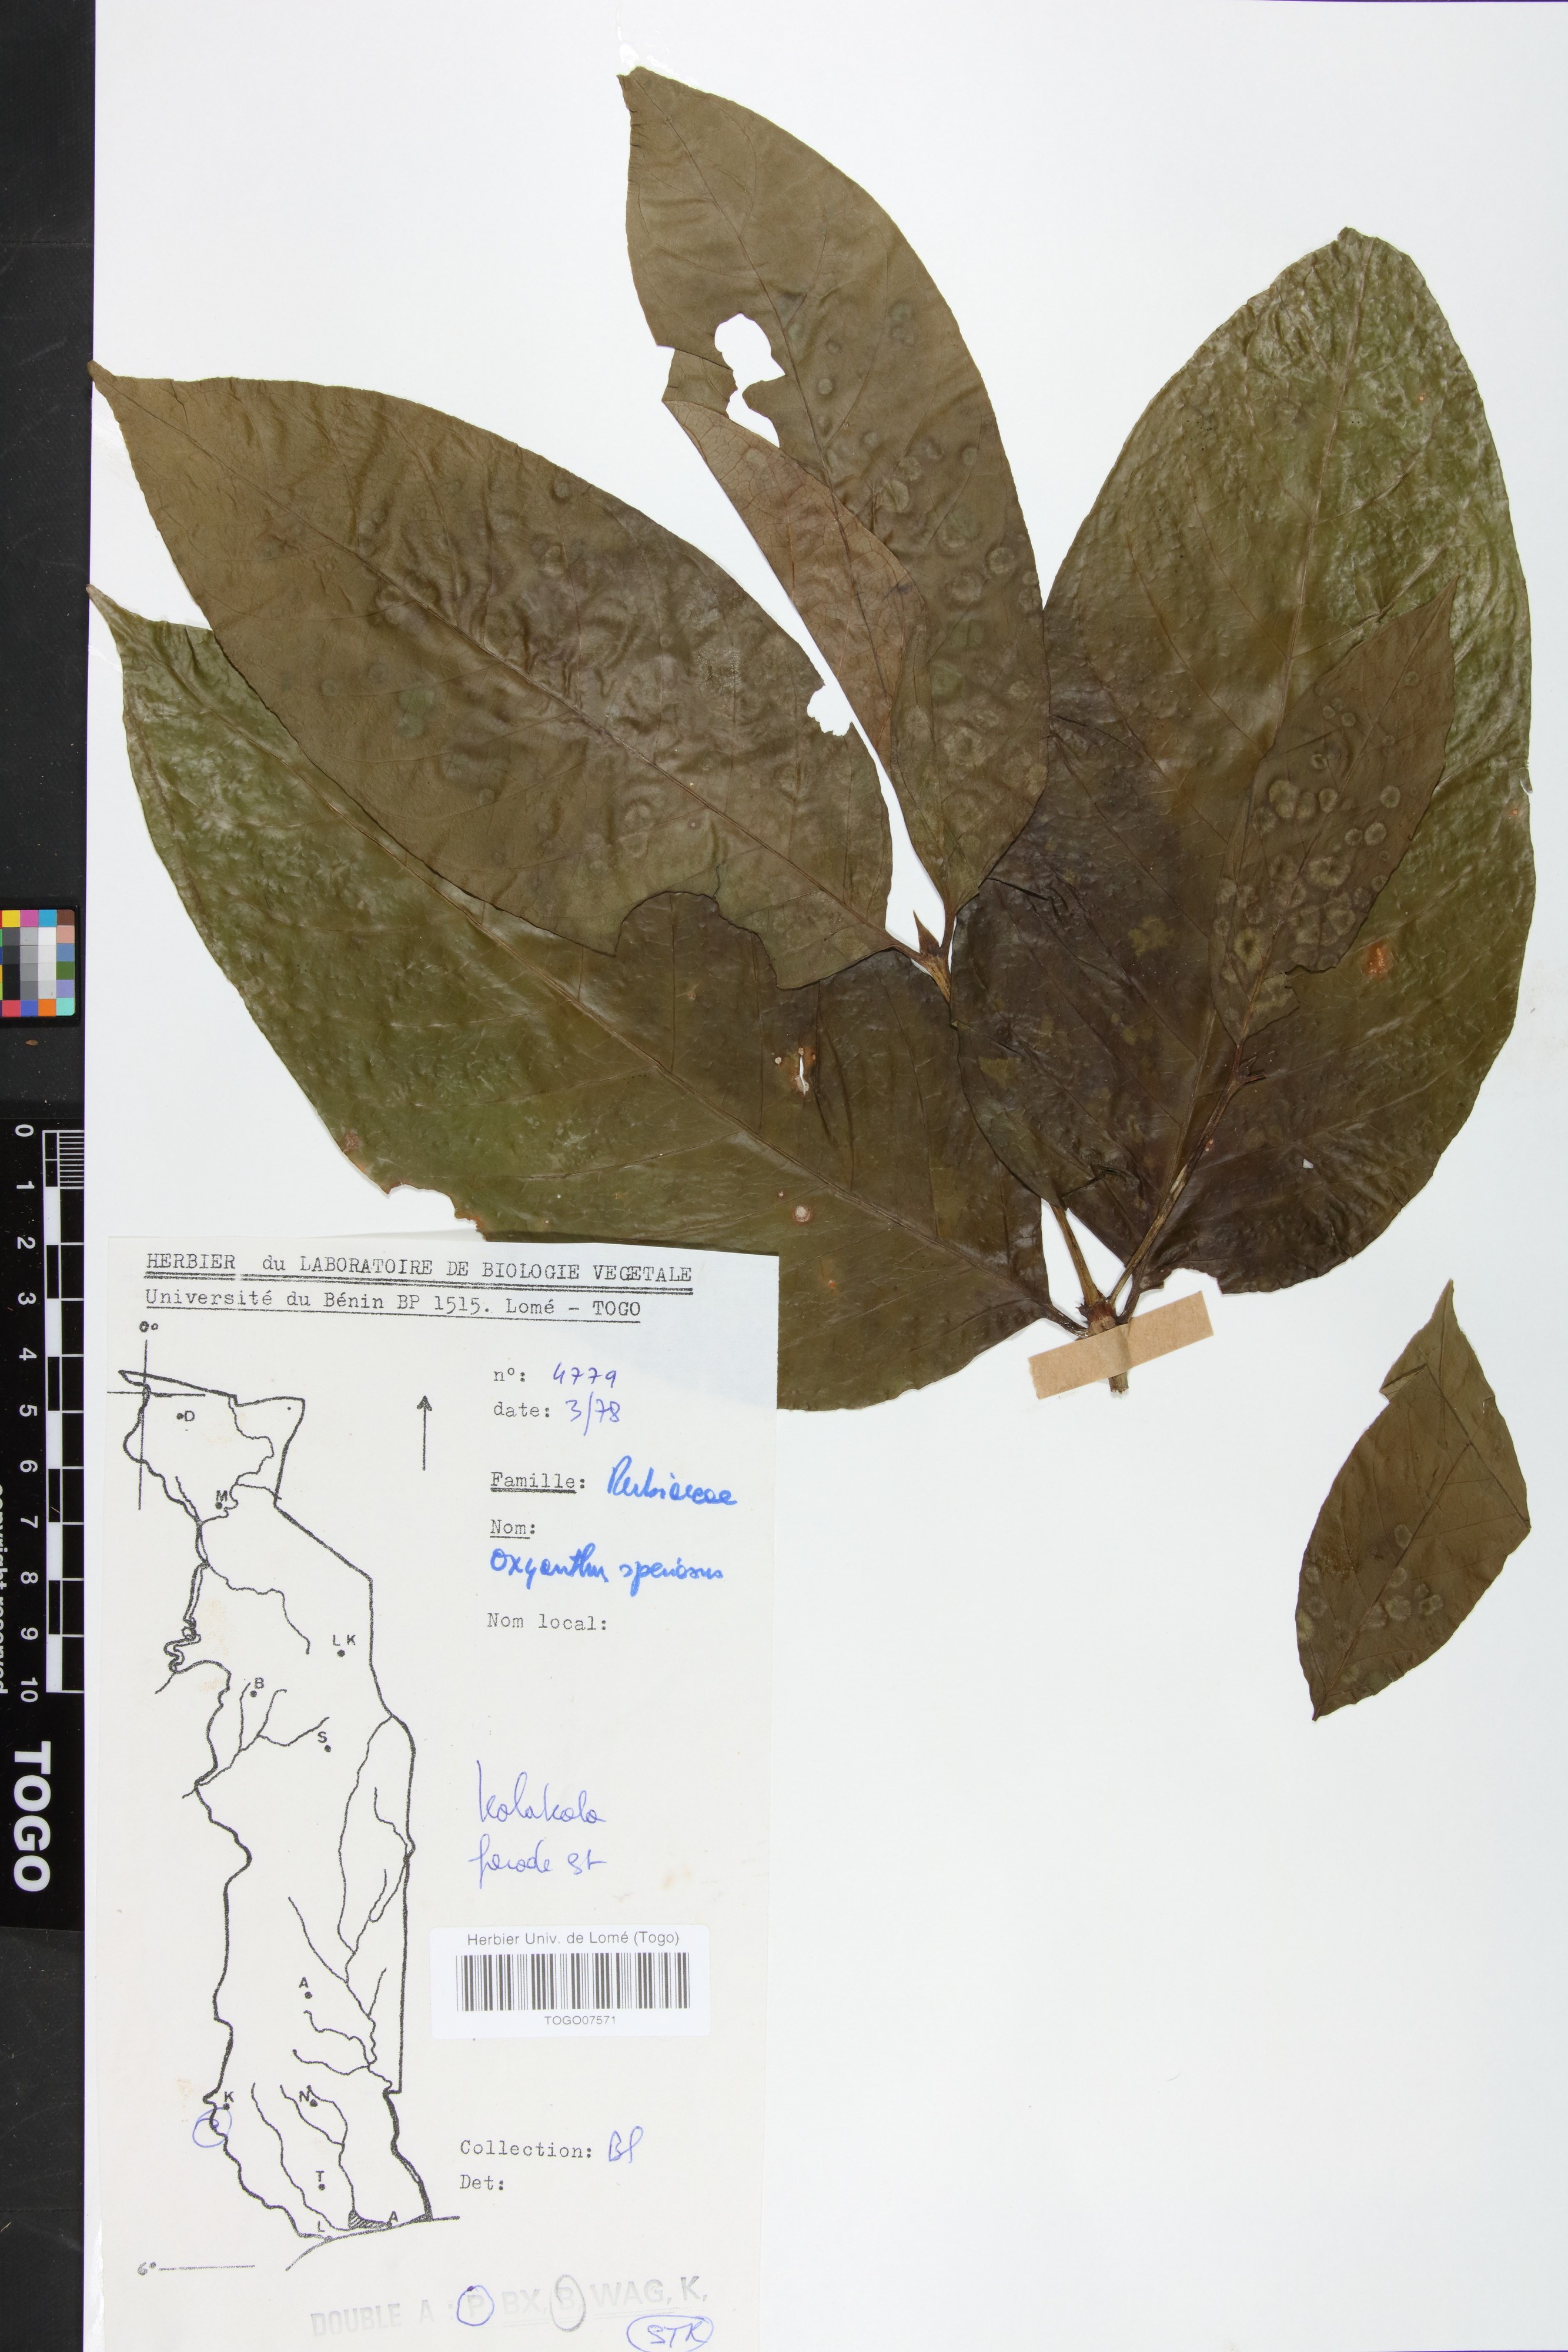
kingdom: Plantae
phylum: Tracheophyta
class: Magnoliopsida
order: Gentianales
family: Rubiaceae
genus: Oxyanthus
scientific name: Oxyanthus speciosus
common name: Whipstick loquat
